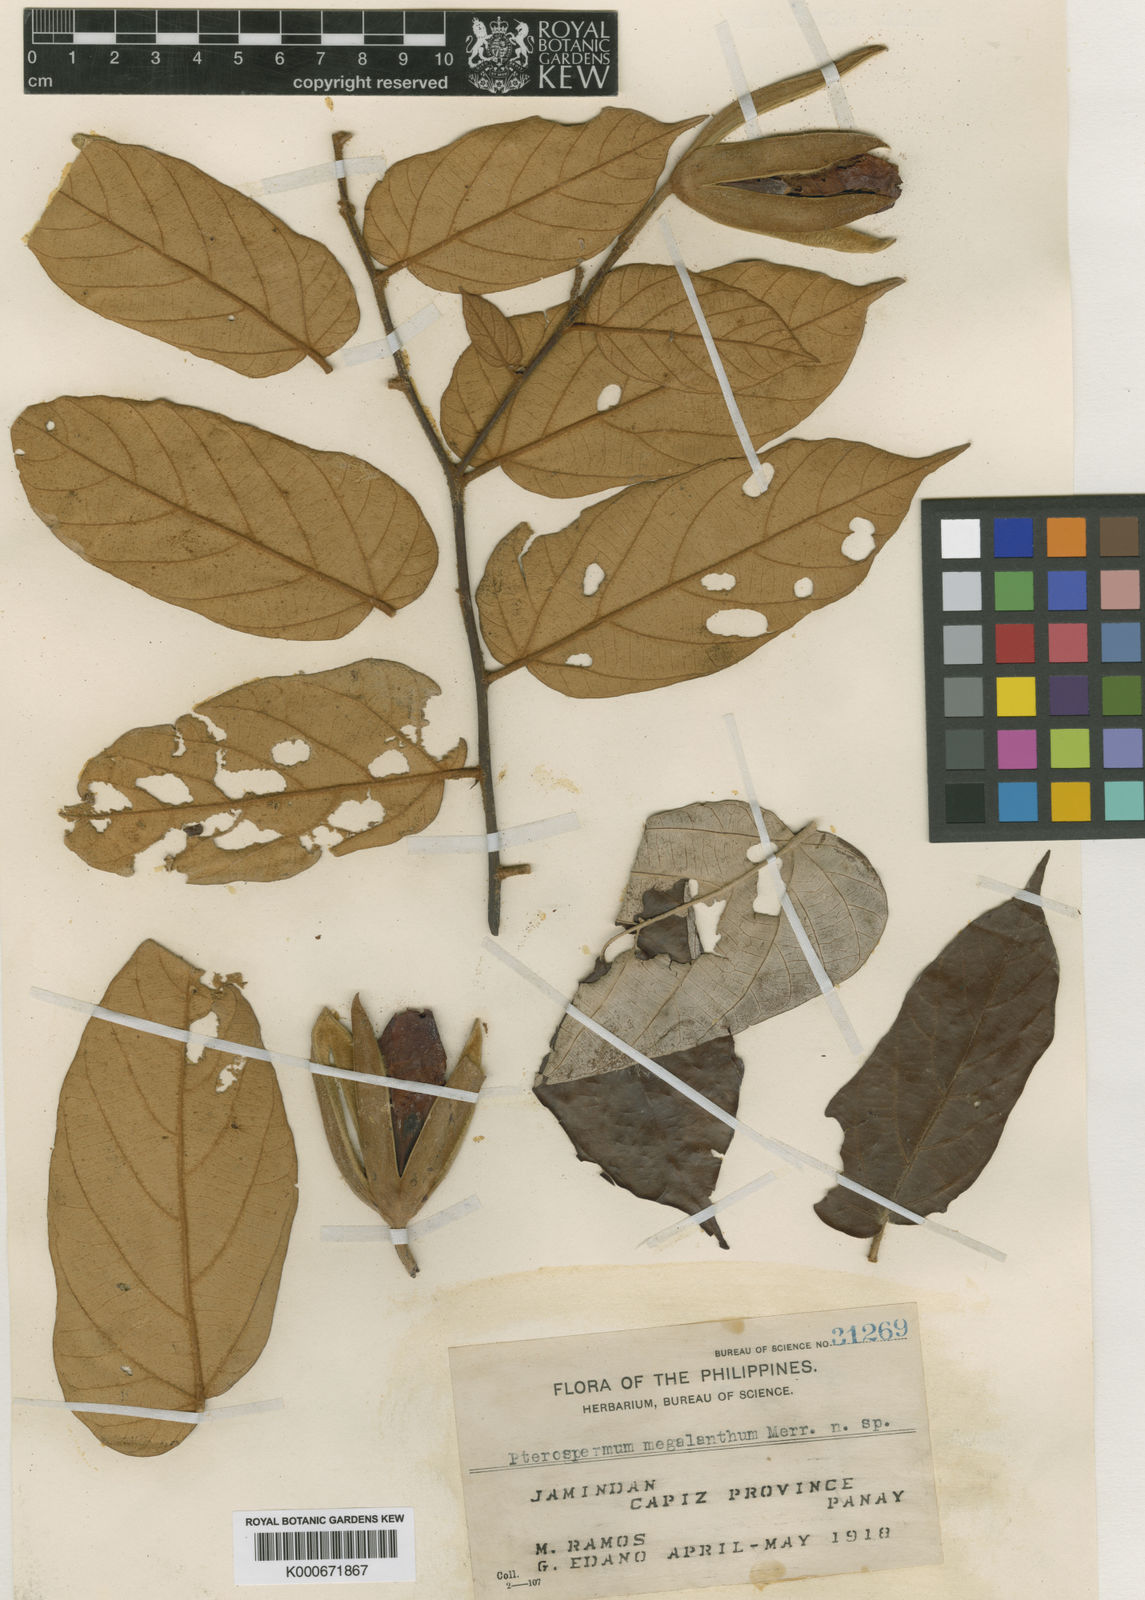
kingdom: Plantae
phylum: Tracheophyta
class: Magnoliopsida
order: Malvales
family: Malvaceae
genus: Pterospermum
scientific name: Pterospermum megalanthum
